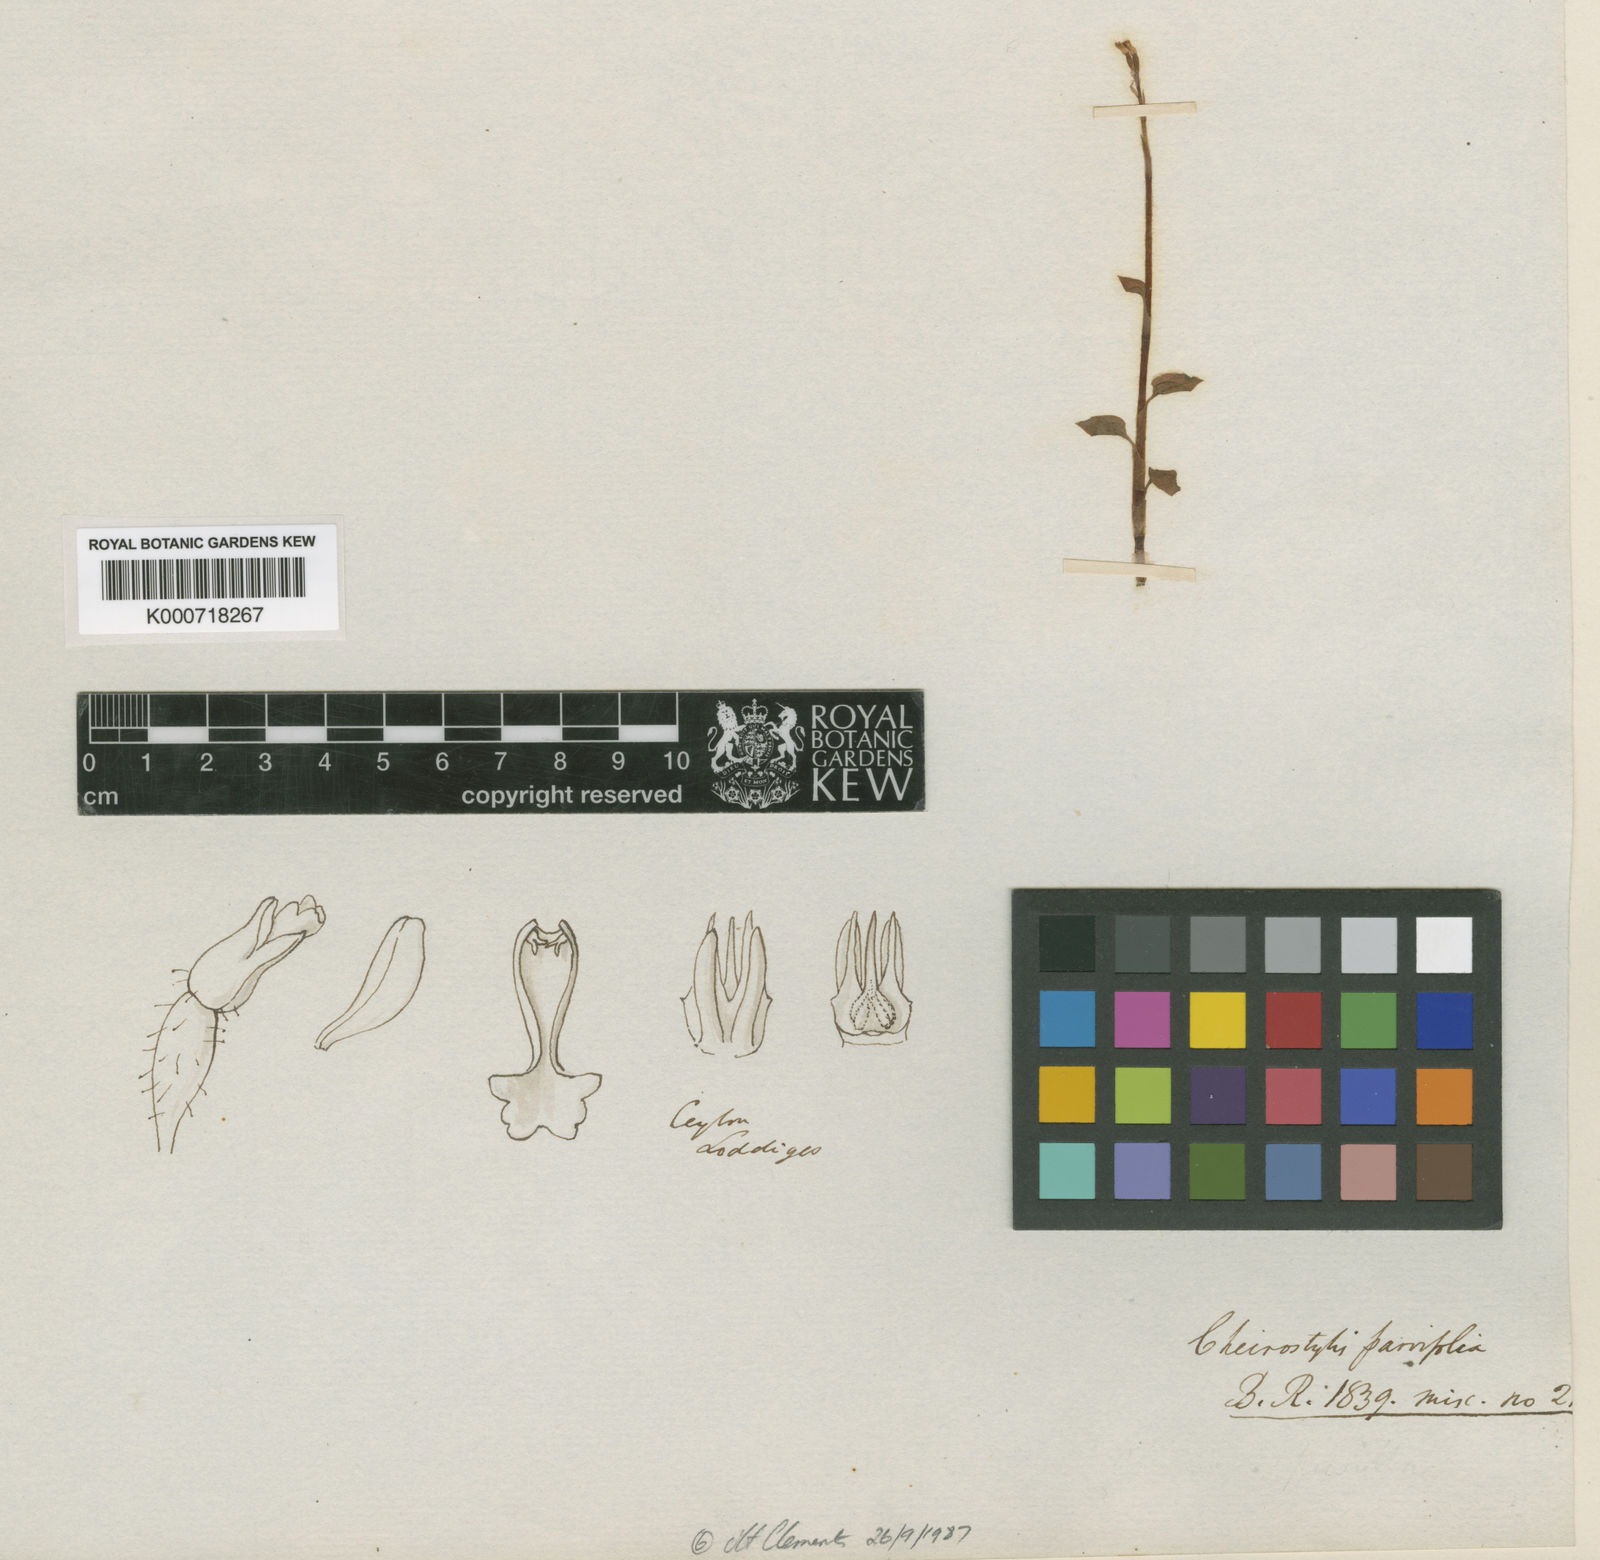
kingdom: Plantae
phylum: Tracheophyta
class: Liliopsida
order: Asparagales
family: Orchidaceae
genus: Cheirostylis
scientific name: Cheirostylis parvifolia
